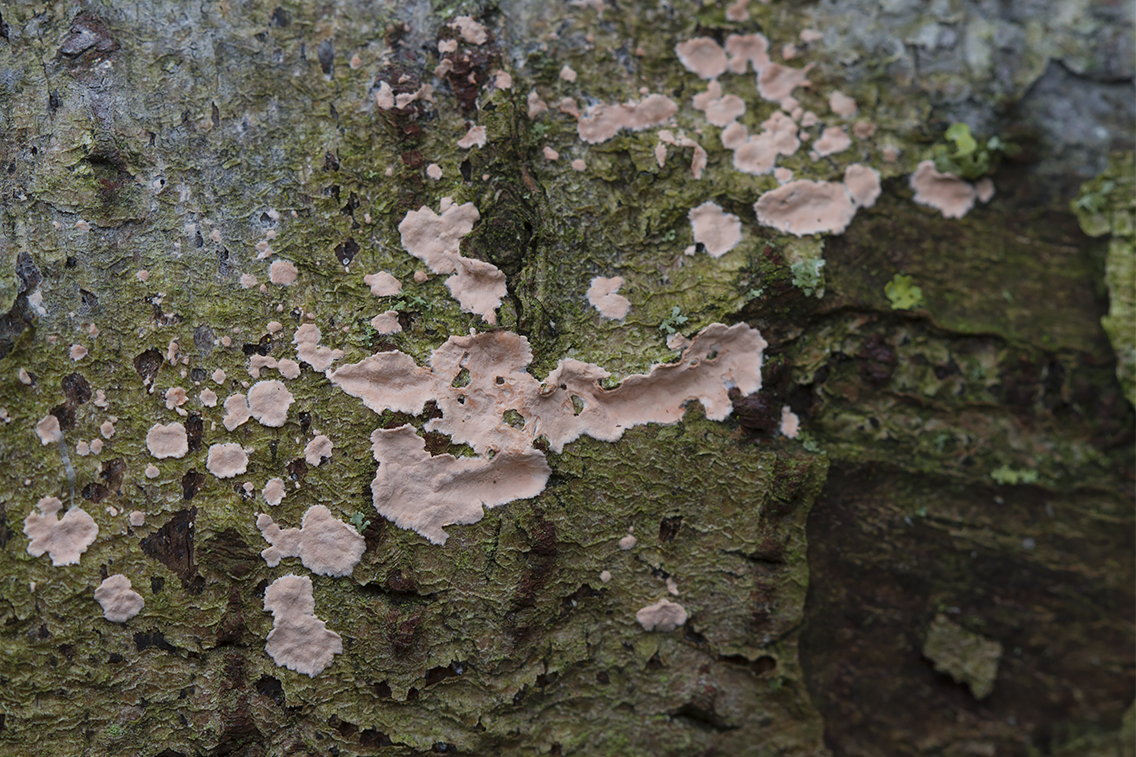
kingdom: Fungi
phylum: Basidiomycota
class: Agaricomycetes
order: Corticiales
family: Corticiaceae
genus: Corticium
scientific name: Corticium roseum
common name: rosa barkskind
